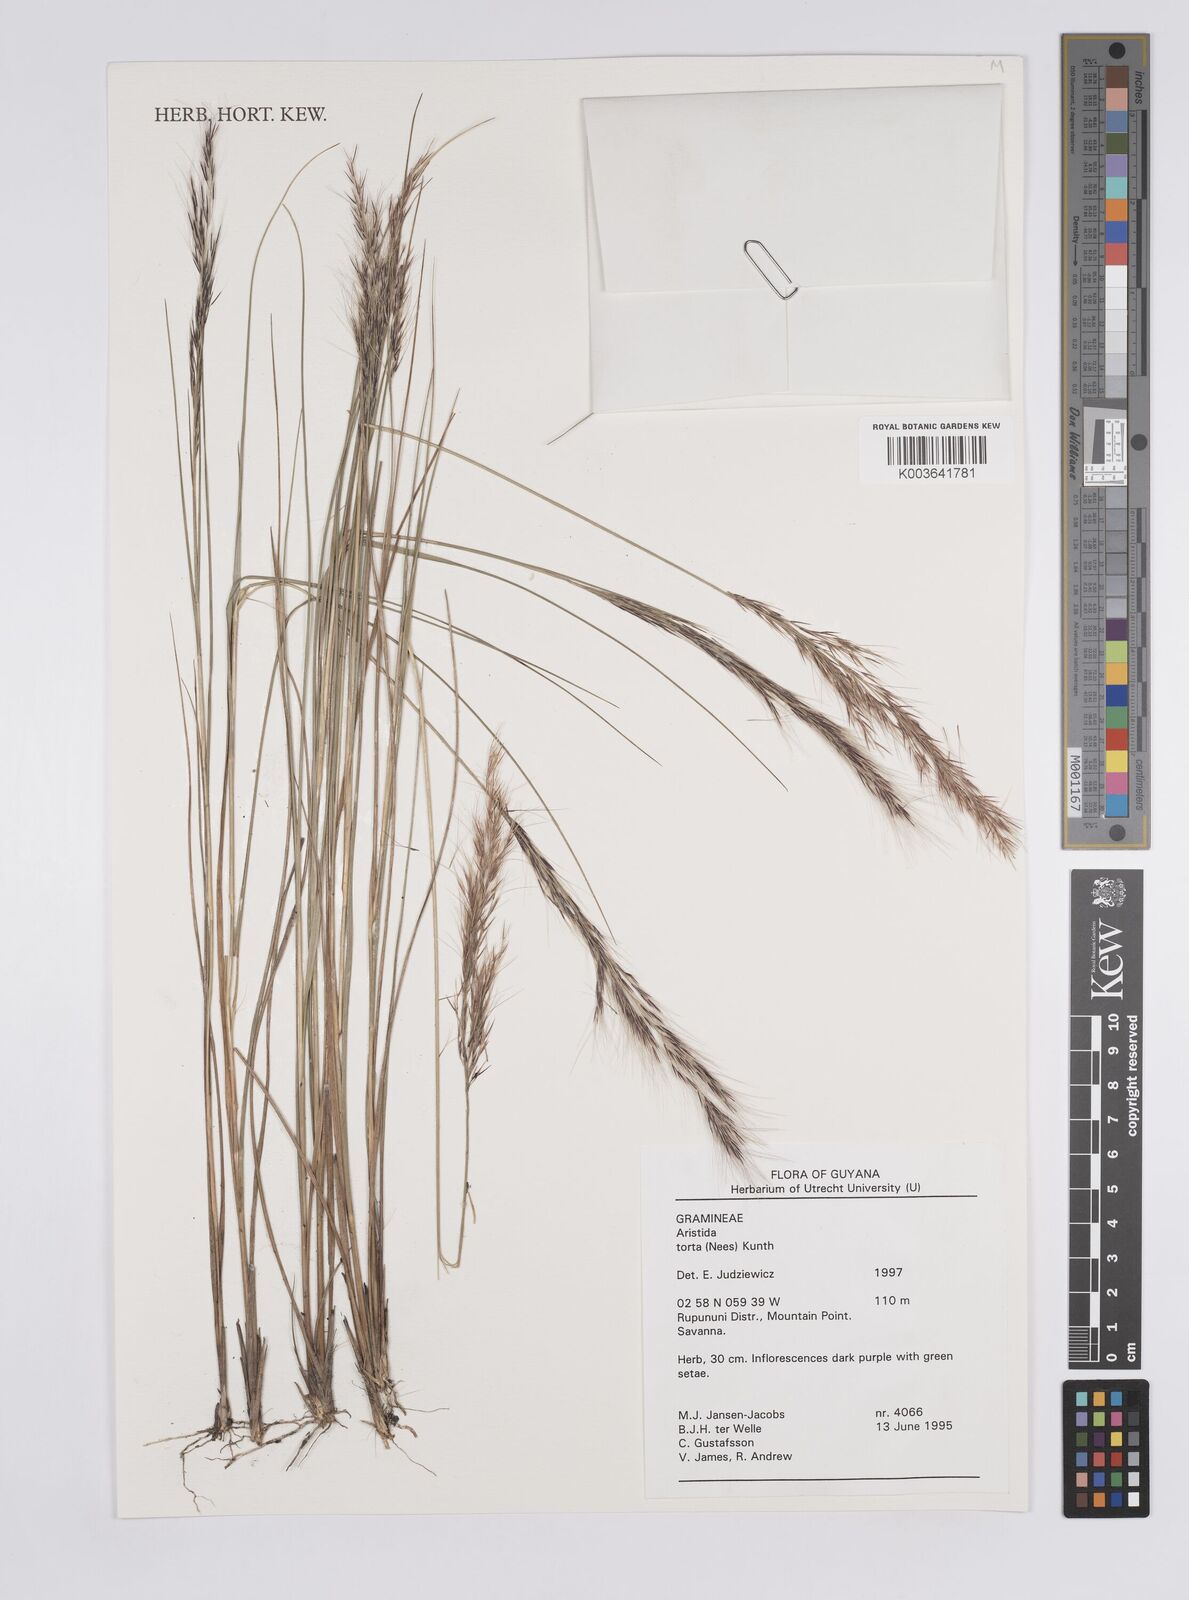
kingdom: Plantae
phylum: Tracheophyta
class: Liliopsida
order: Poales
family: Poaceae
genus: Aristida
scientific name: Aristida torta
